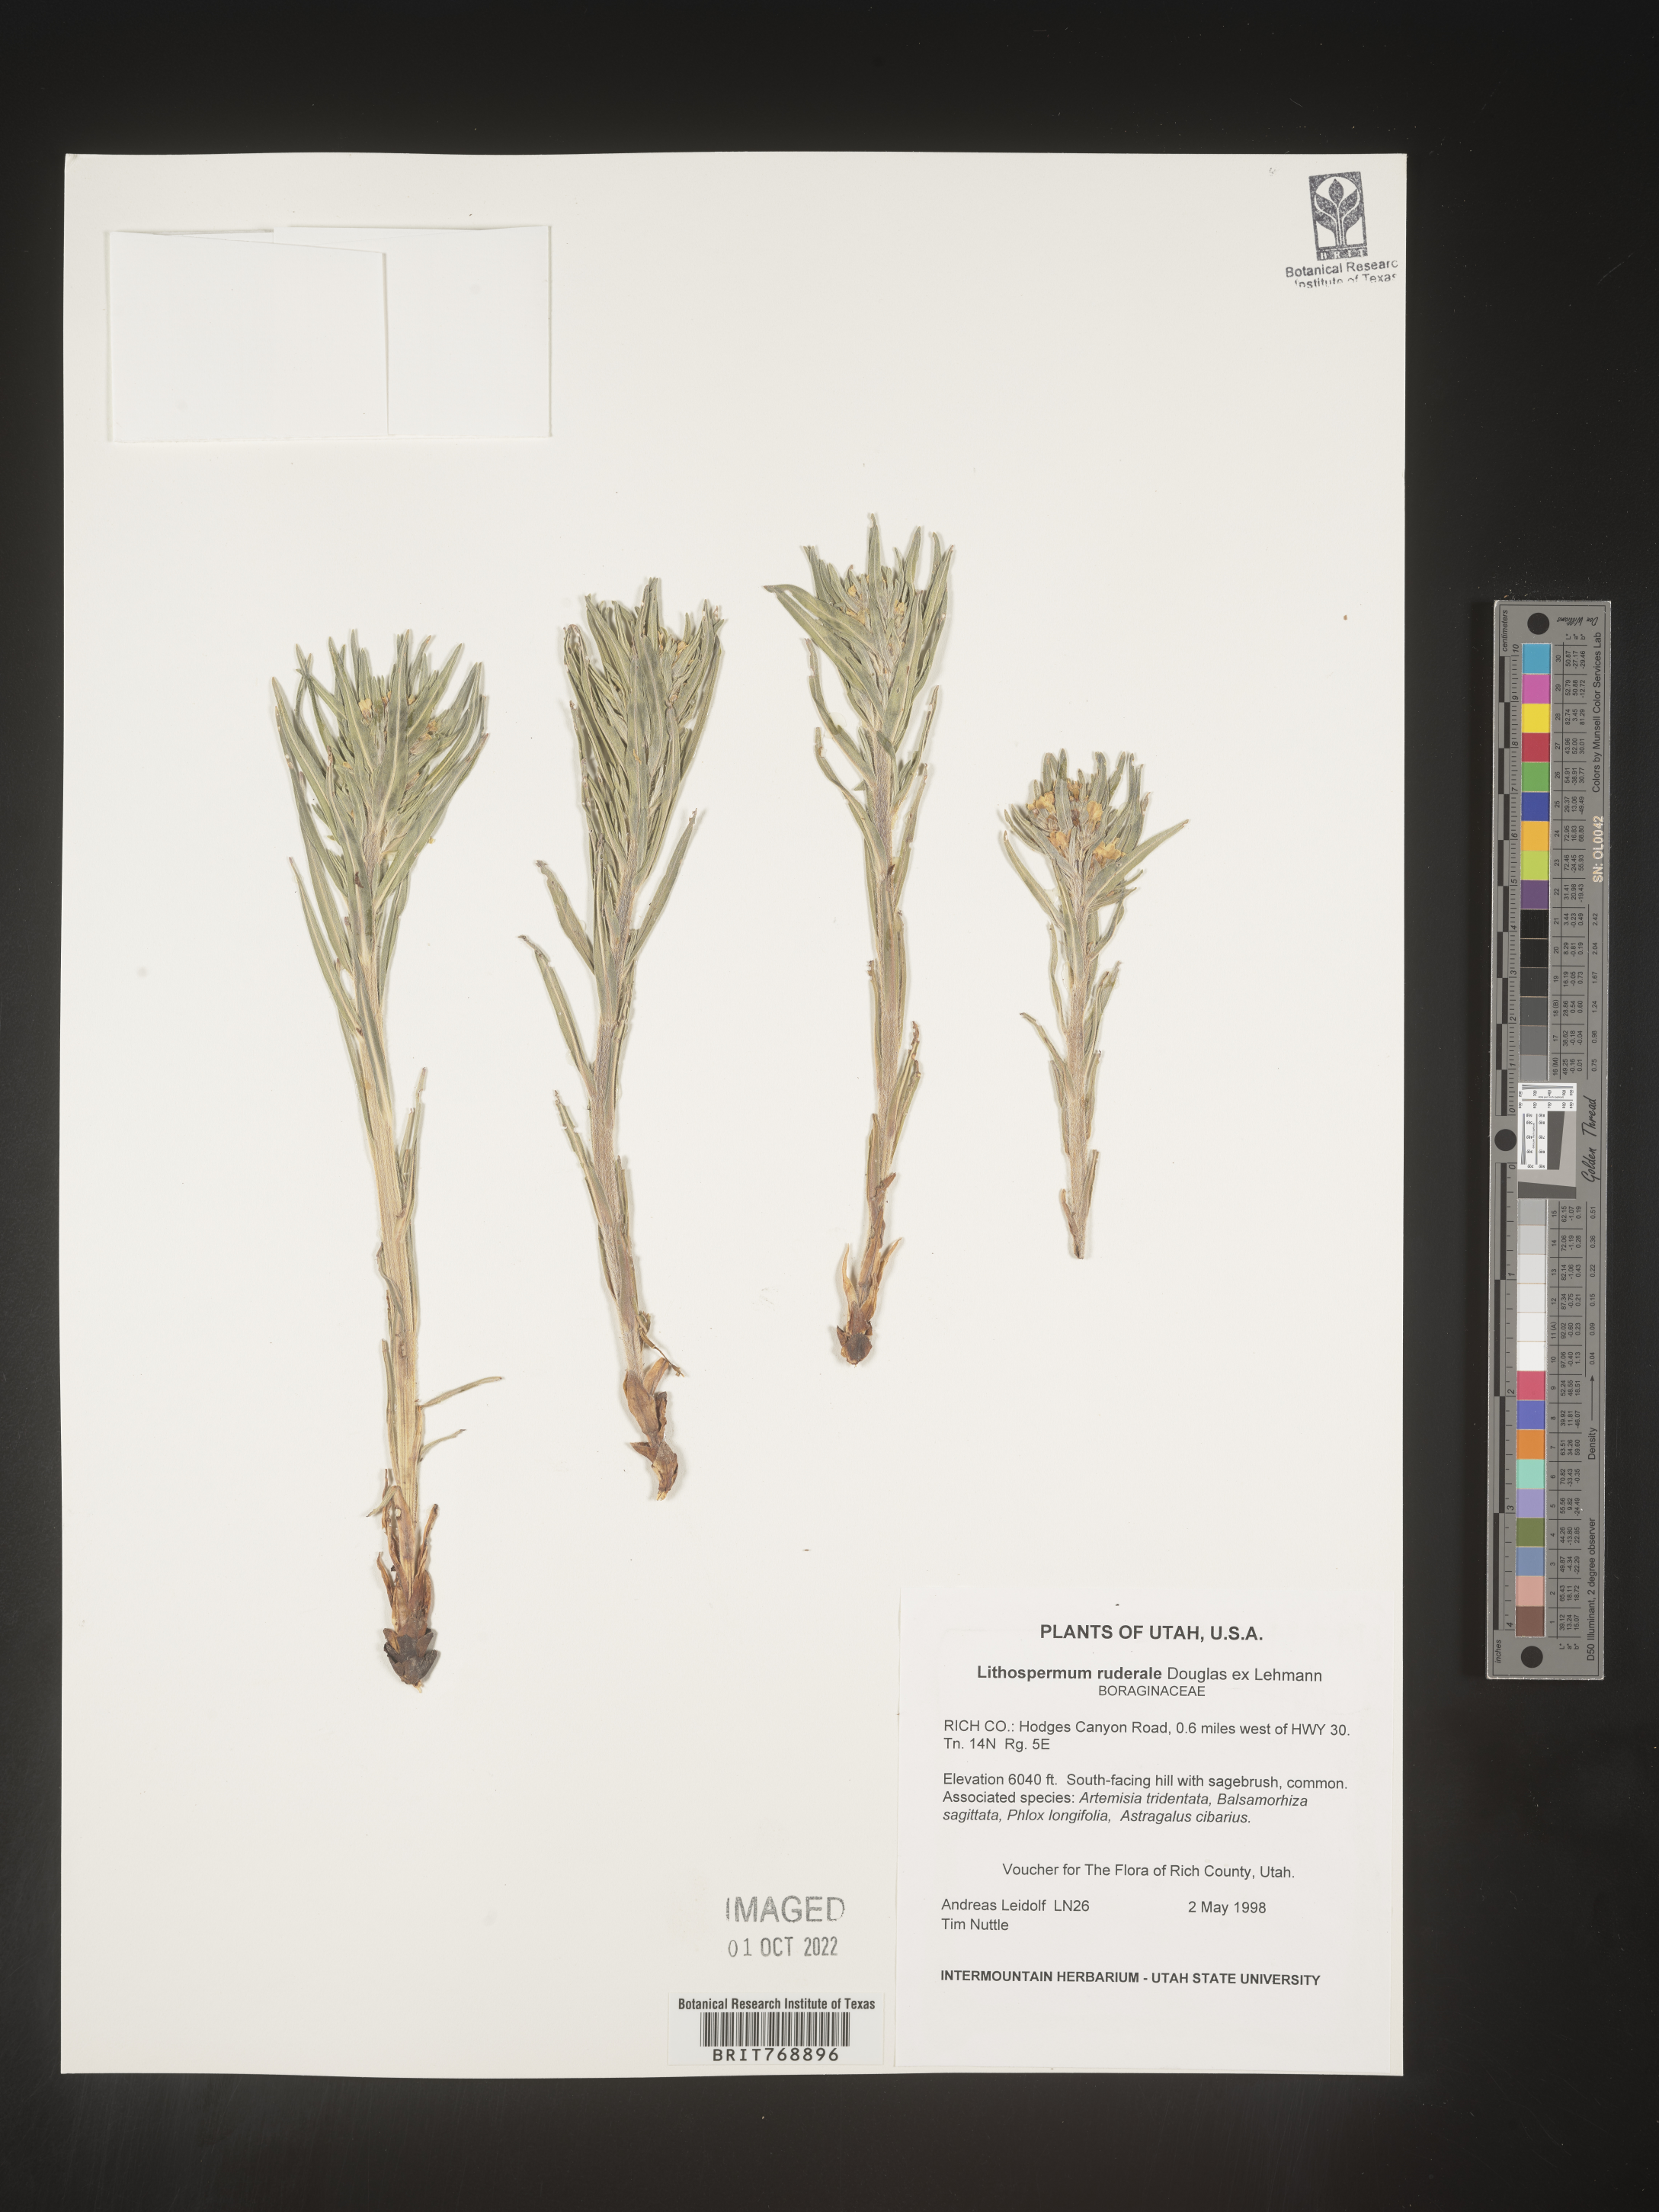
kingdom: Plantae
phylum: Tracheophyta
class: Magnoliopsida
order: Boraginales
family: Boraginaceae
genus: Lithospermum
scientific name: Lithospermum
